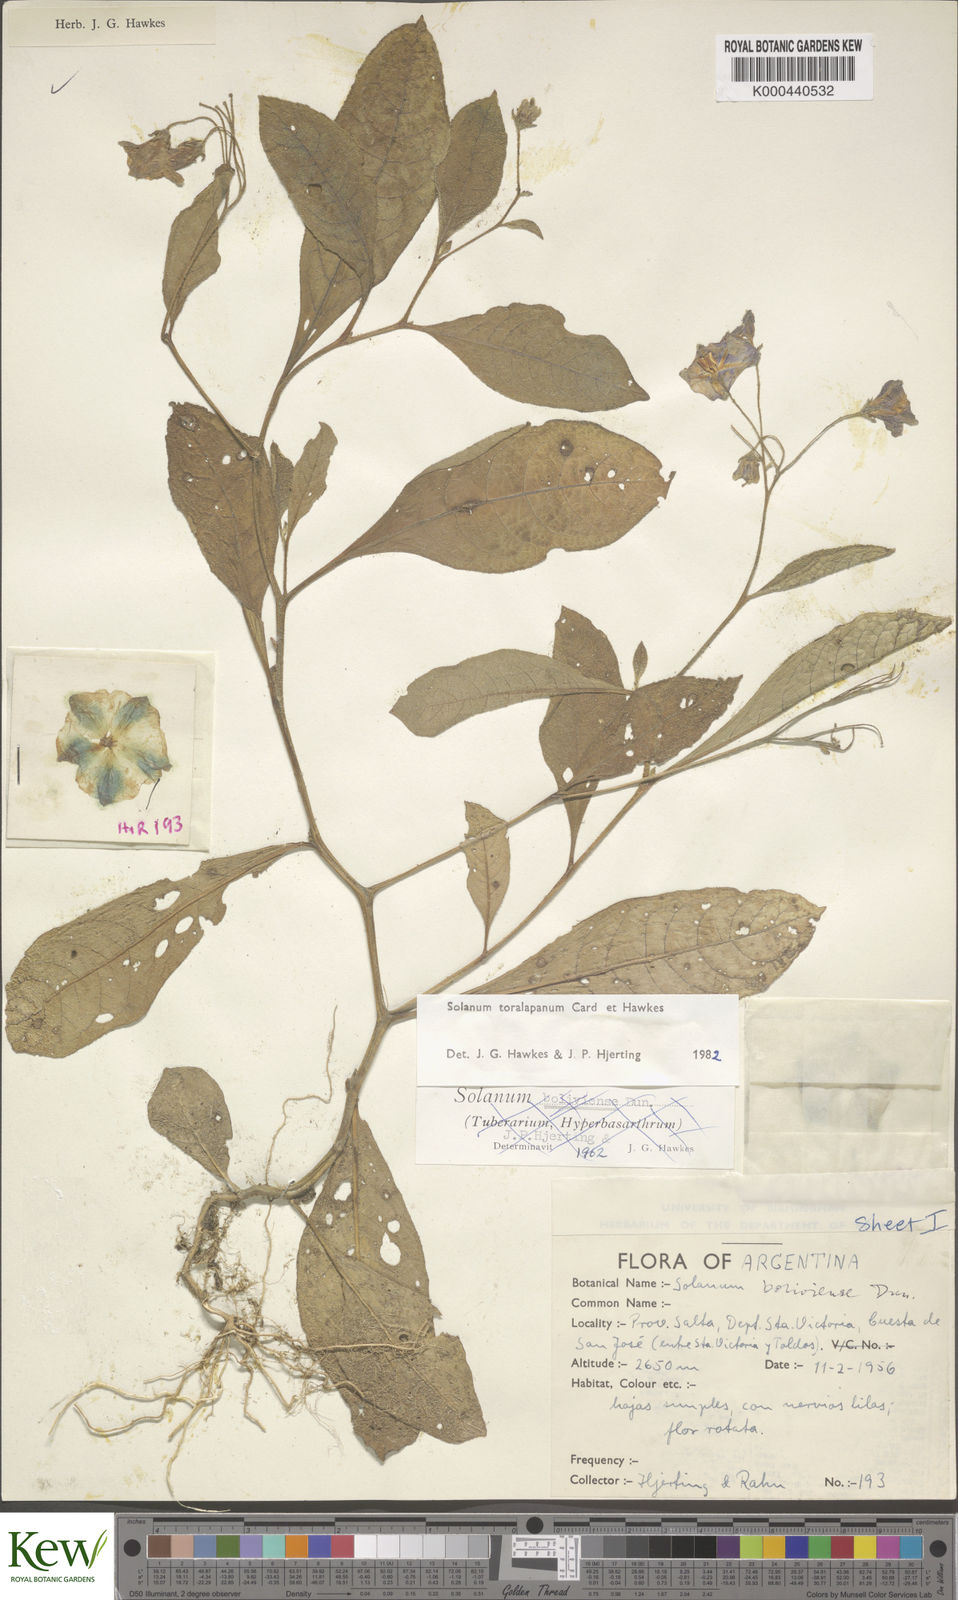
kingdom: Plantae
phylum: Tracheophyta
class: Magnoliopsida
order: Solanales
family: Solanaceae
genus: Solanum
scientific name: Solanum
